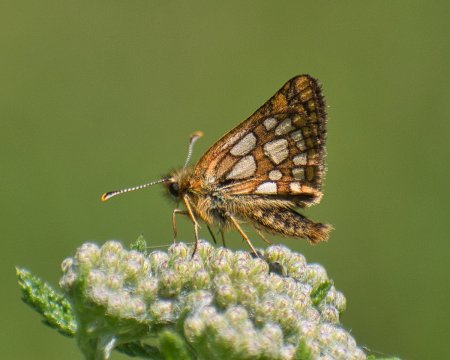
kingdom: Animalia
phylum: Arthropoda
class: Insecta
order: Lepidoptera
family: Hesperiidae
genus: Carterocephalus
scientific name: Carterocephalus skada
